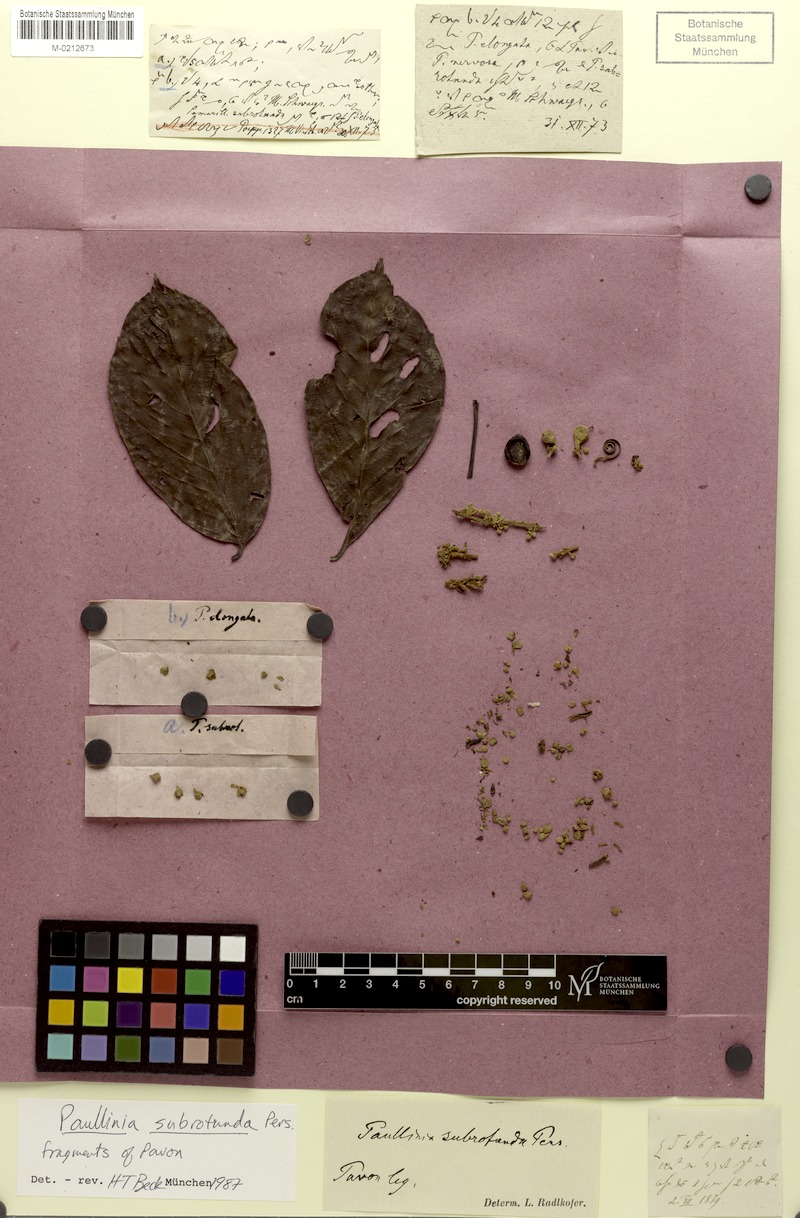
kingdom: Plantae
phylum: Tracheophyta
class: Magnoliopsida
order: Sapindales
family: Sapindaceae
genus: Paullinia
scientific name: Paullinia obovata
